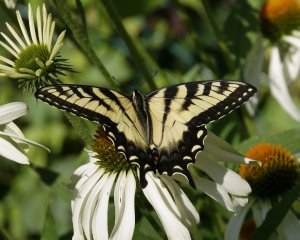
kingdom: Animalia
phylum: Arthropoda
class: Insecta
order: Lepidoptera
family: Papilionidae
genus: Pterourus
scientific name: Pterourus glaucus
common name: Eastern Tiger Swallowtail
